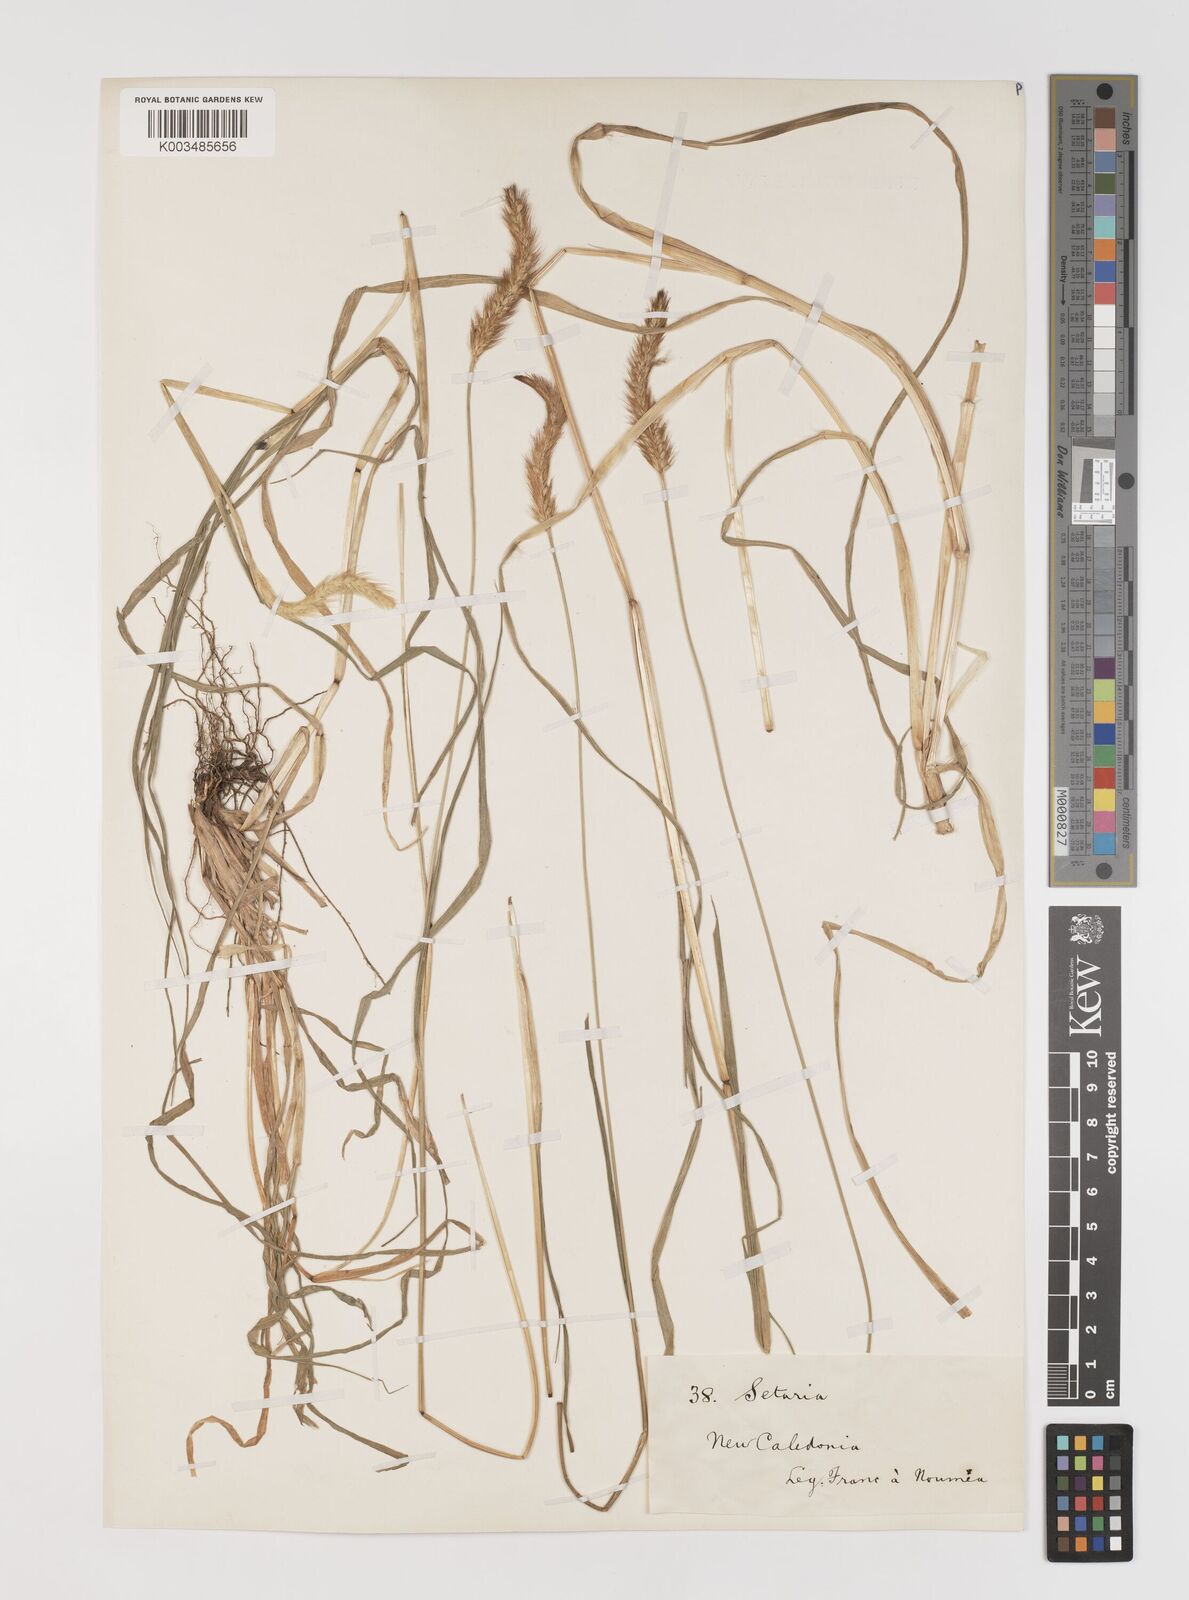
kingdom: Plantae
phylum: Tracheophyta
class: Liliopsida
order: Poales
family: Poaceae
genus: Setaria
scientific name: Setaria parviflora
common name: Knotroot bristle-grass
